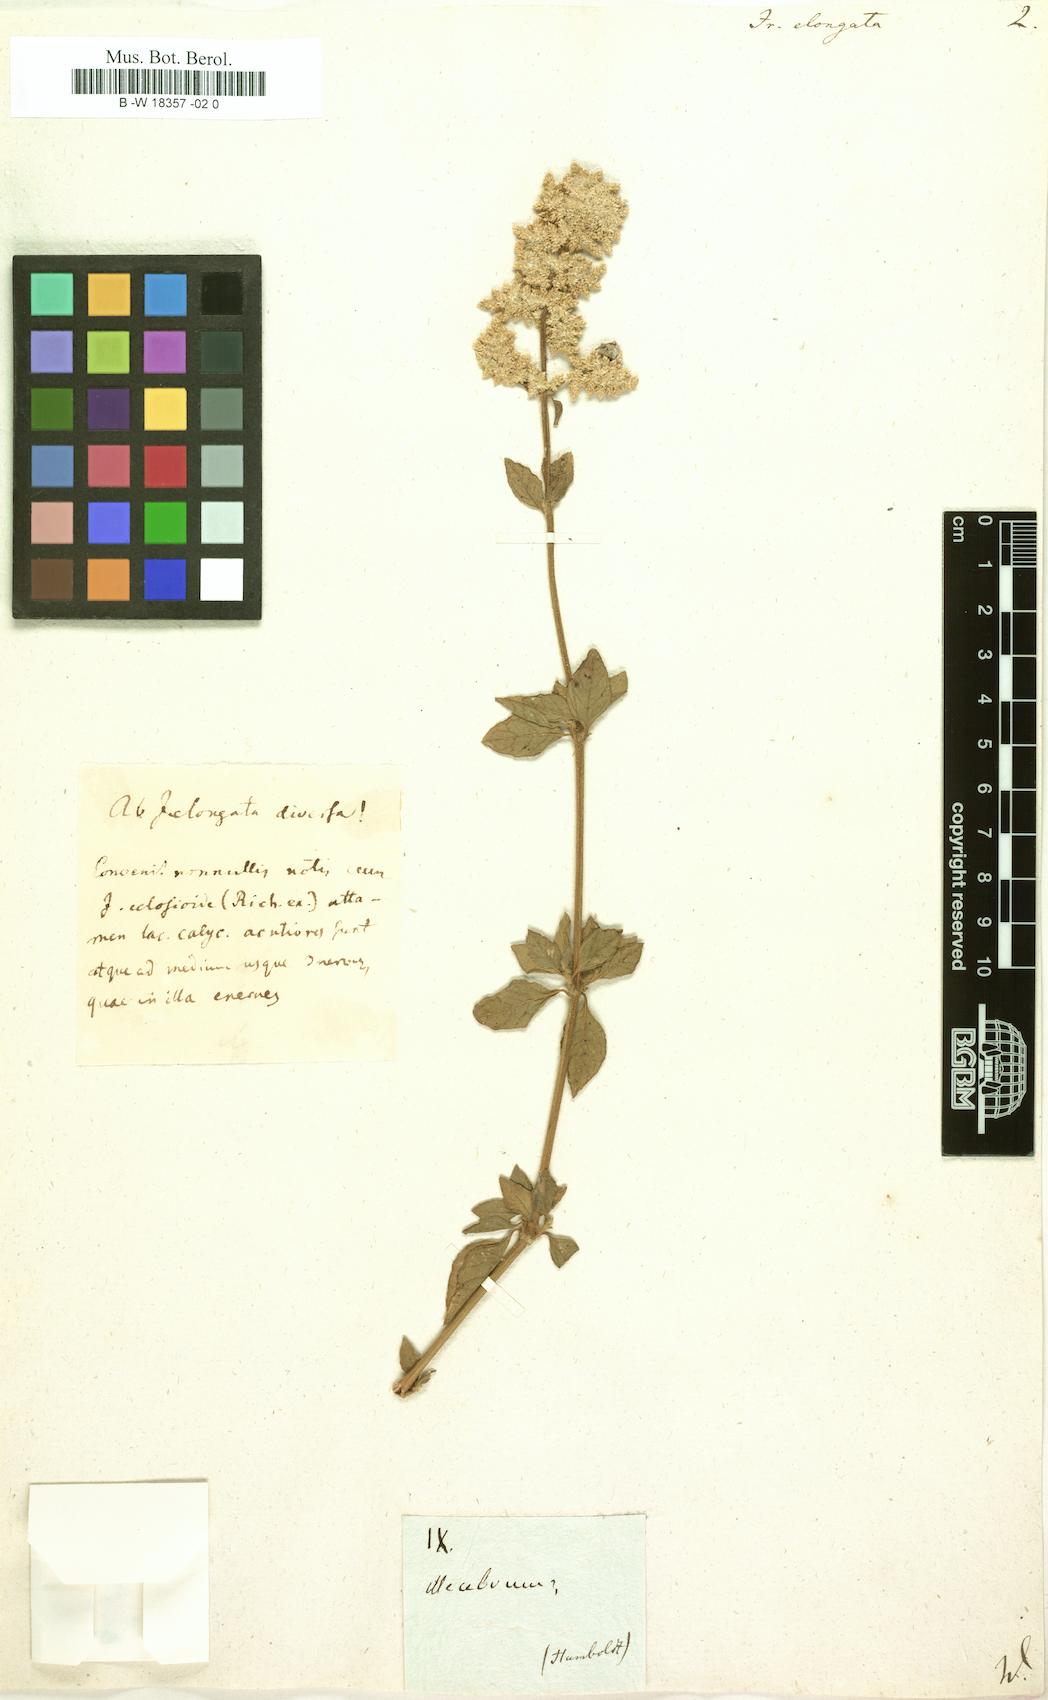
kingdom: Plantae
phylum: Tracheophyta
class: Magnoliopsida
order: Caryophyllales
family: Amaranthaceae
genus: Iresine
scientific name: Iresine
